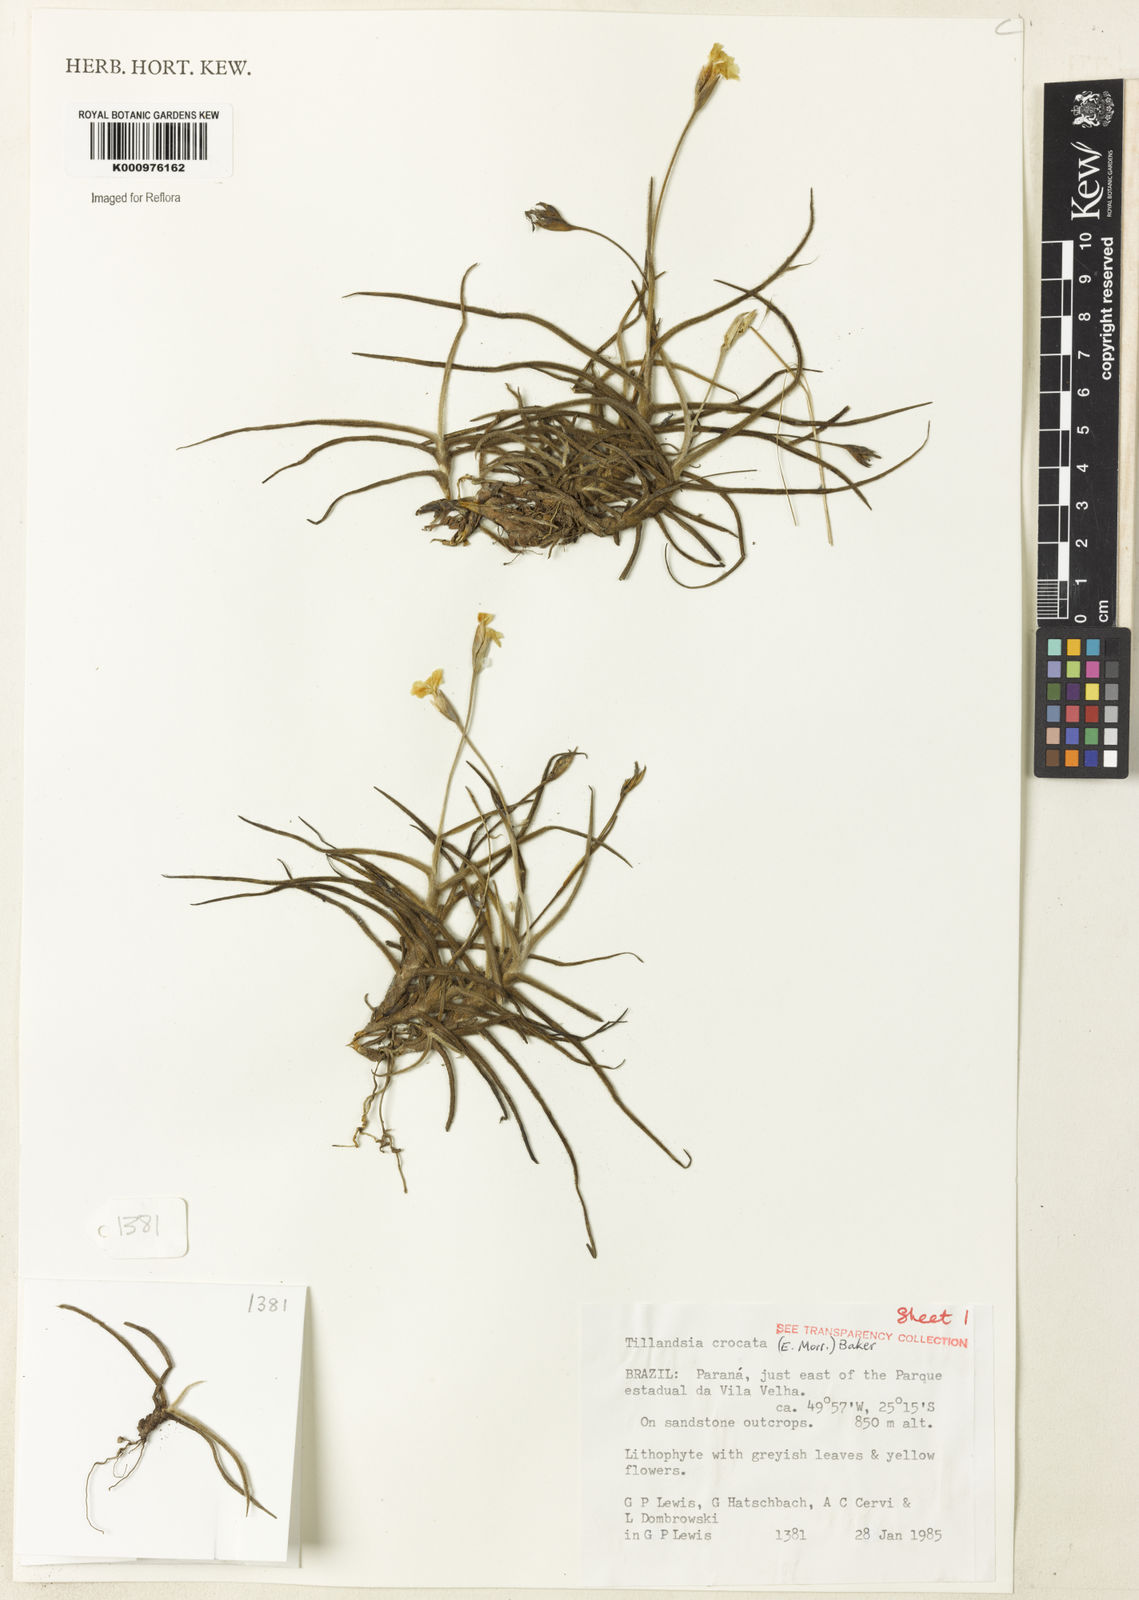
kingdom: Plantae
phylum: Tracheophyta
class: Liliopsida
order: Poales
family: Bromeliaceae
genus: Tillandsia
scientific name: Tillandsia
